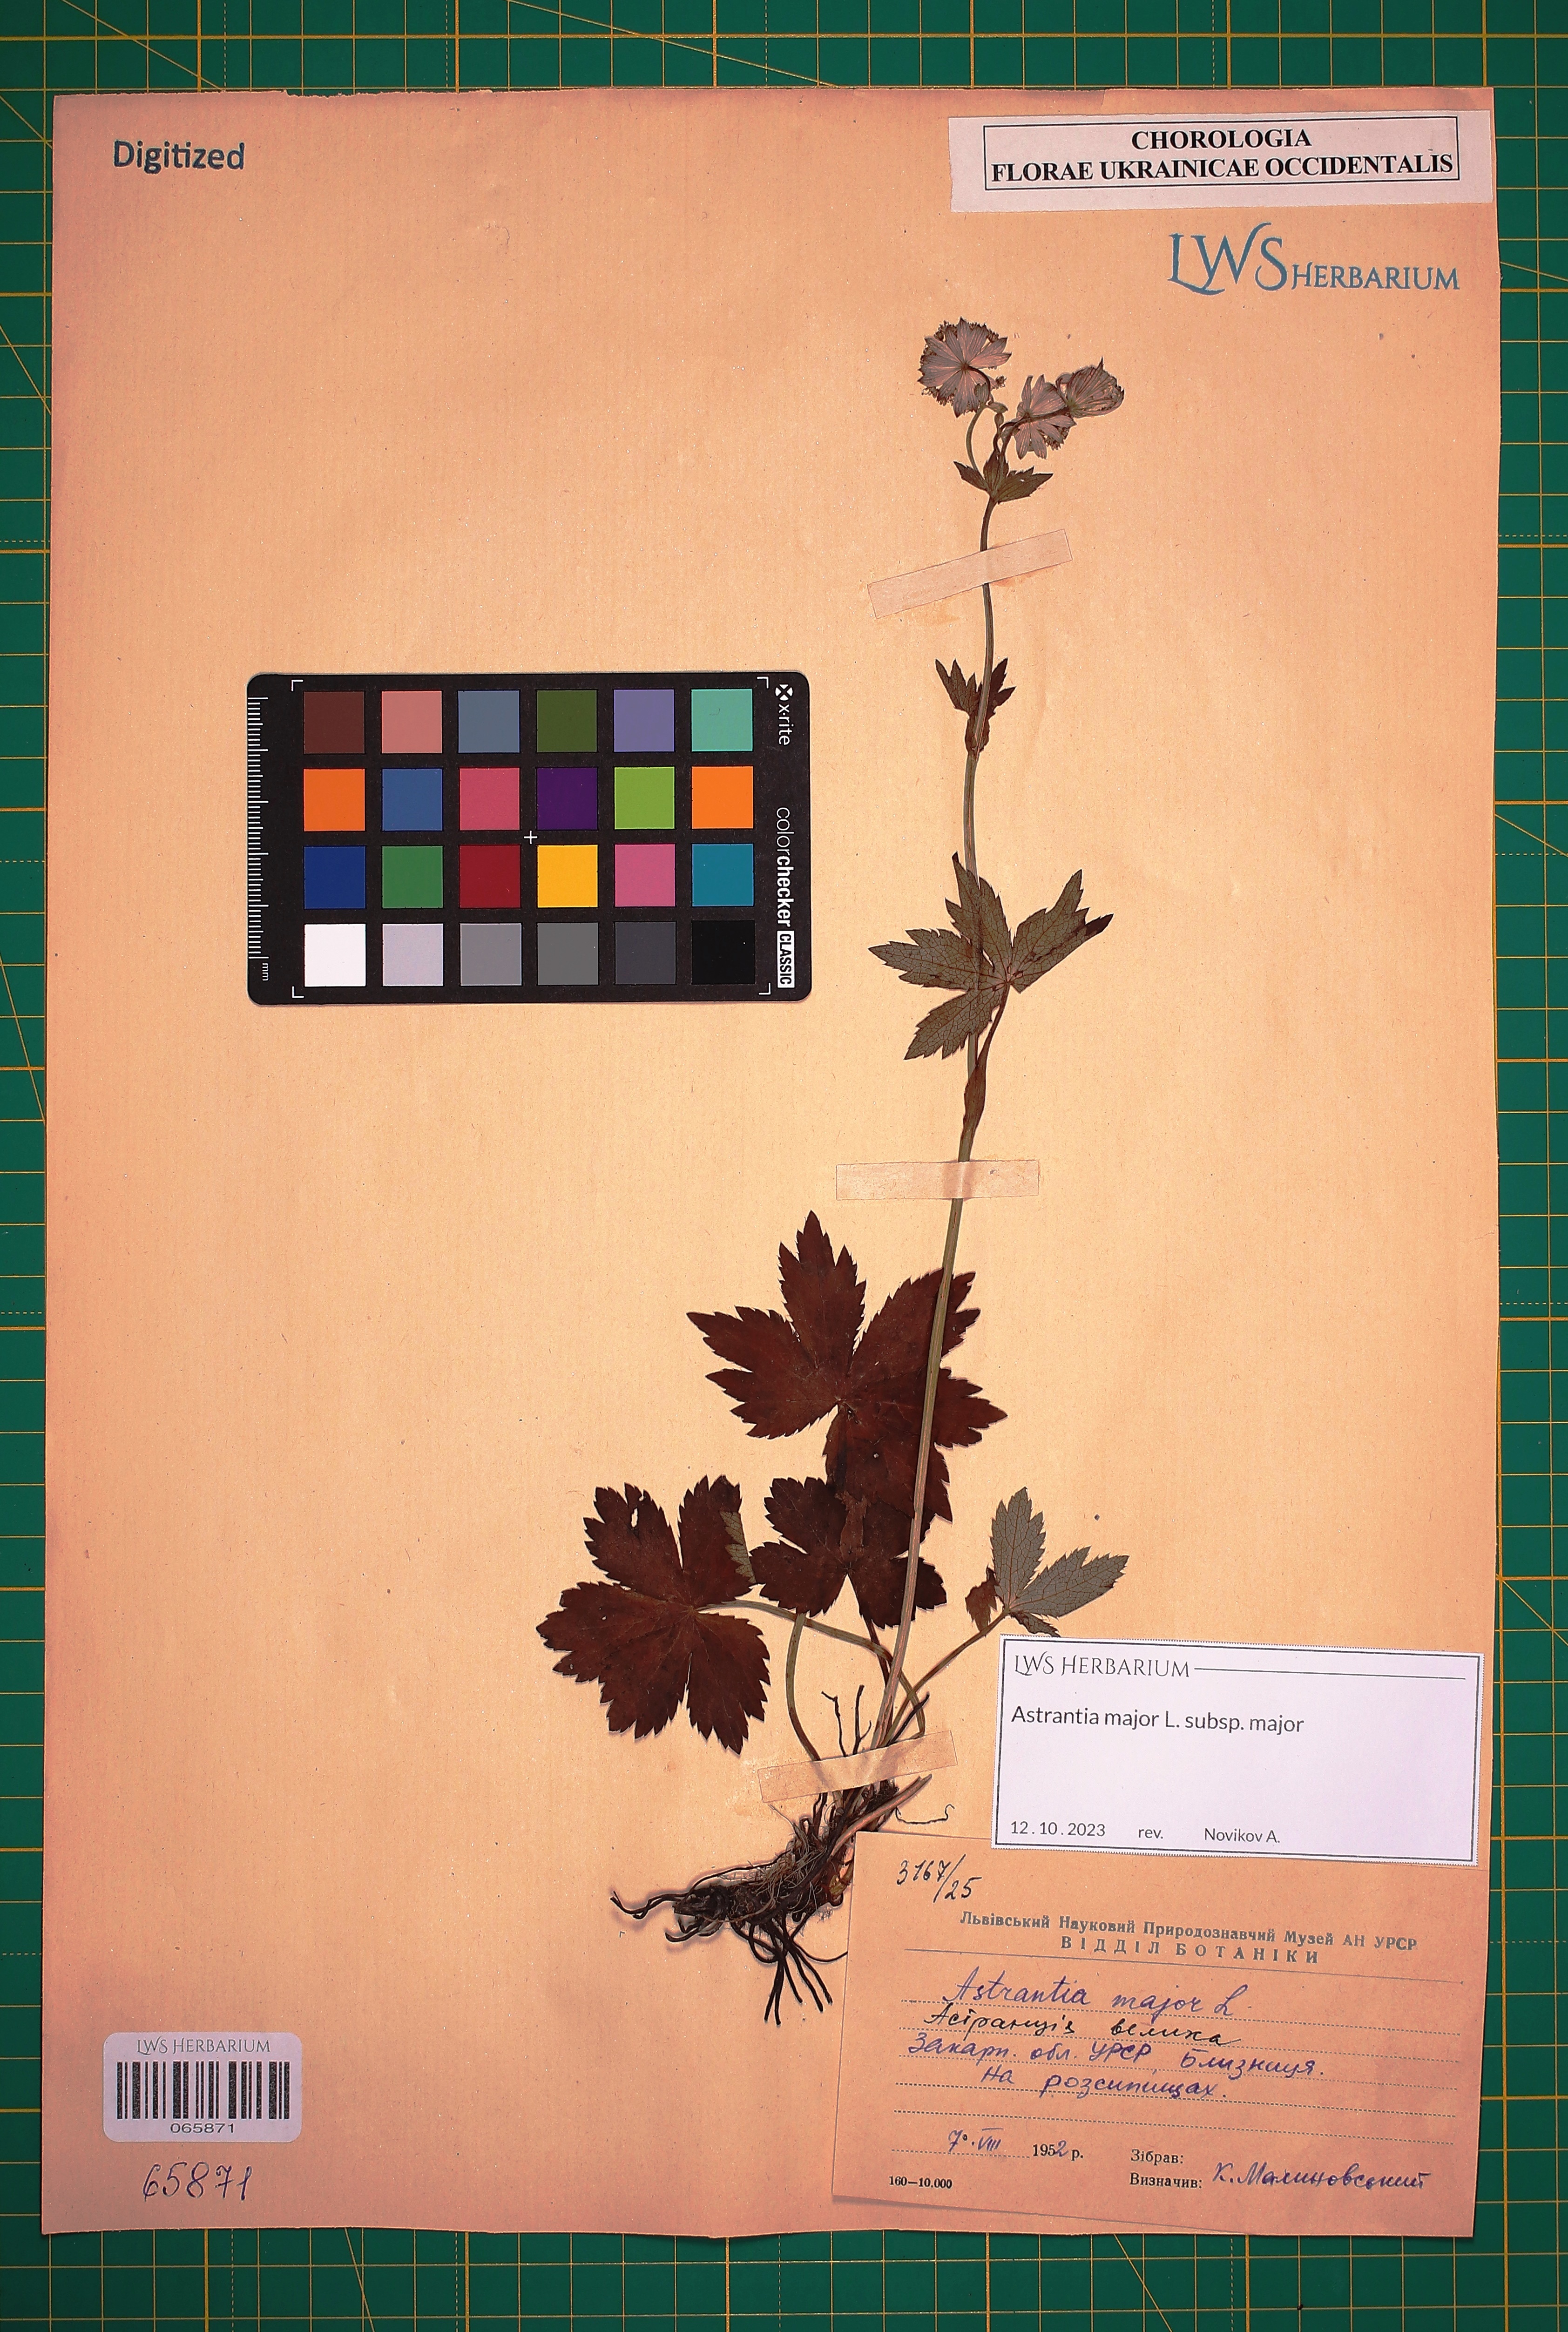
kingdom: Plantae
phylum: Tracheophyta
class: Magnoliopsida
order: Apiales
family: Apiaceae
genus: Astrantia
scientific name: Astrantia major
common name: Greater masterwort
